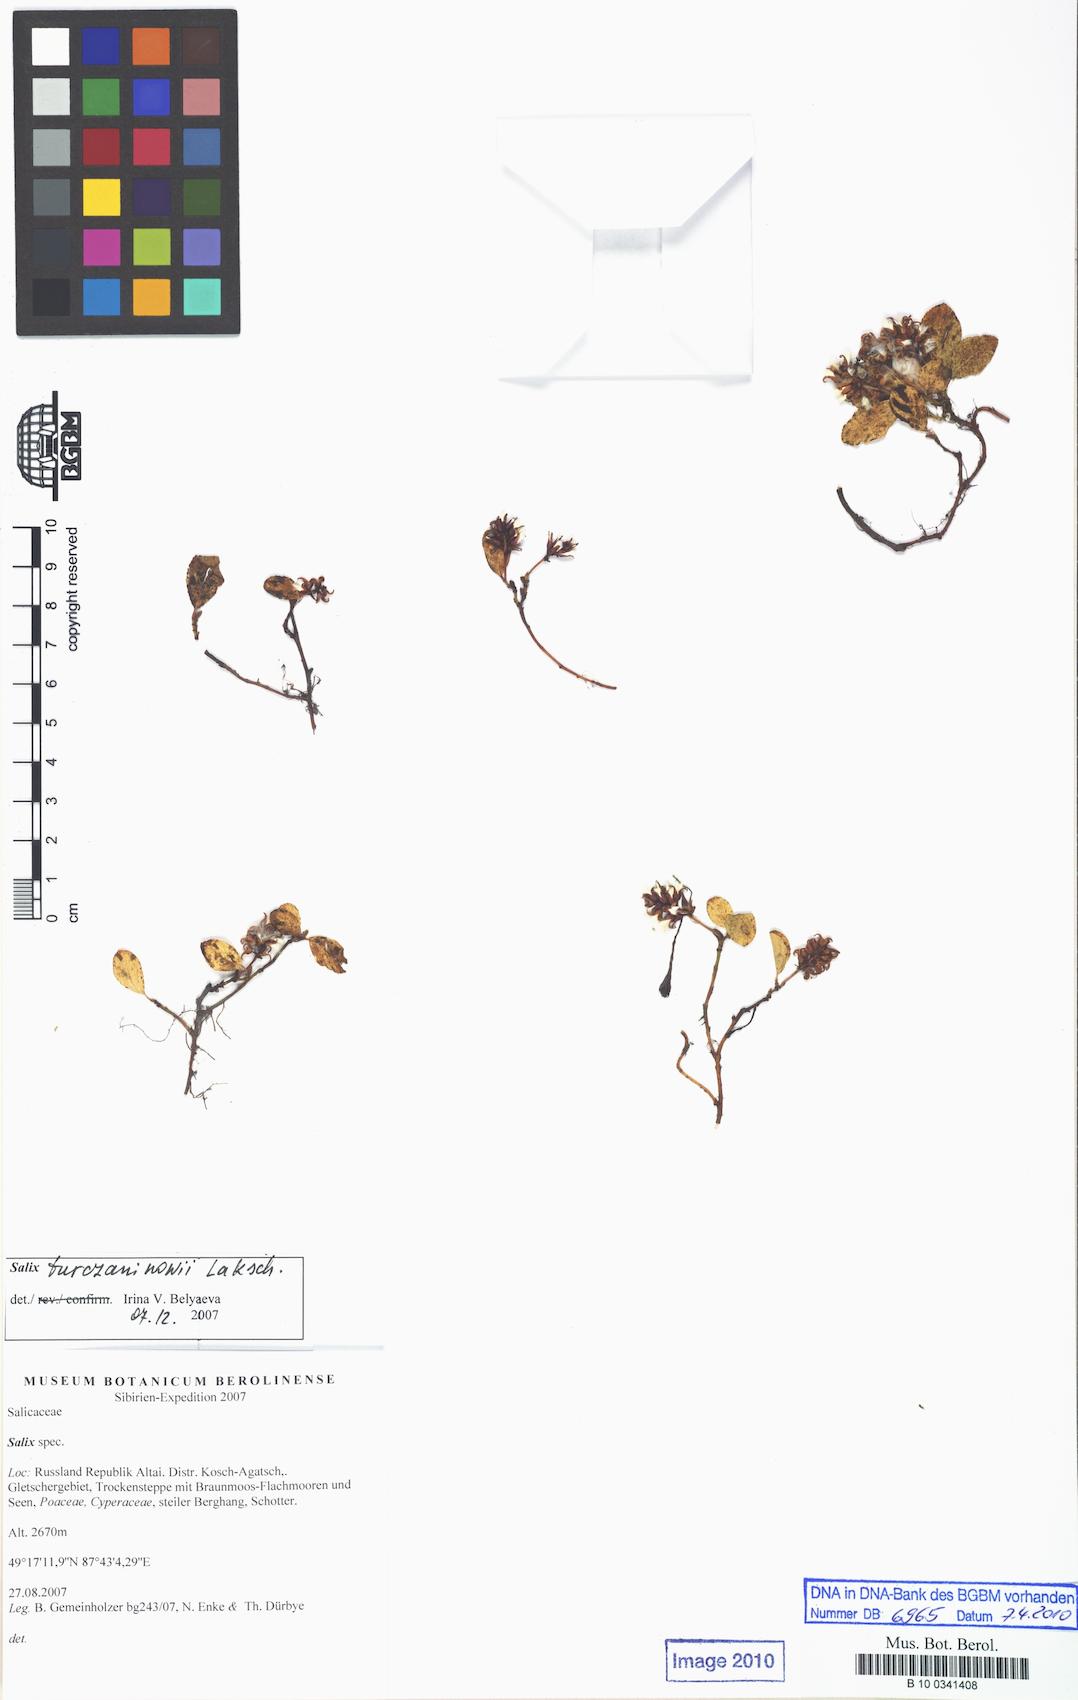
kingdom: Plantae
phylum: Tracheophyta
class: Magnoliopsida
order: Malpighiales
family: Salicaceae
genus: Salix
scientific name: Salix
